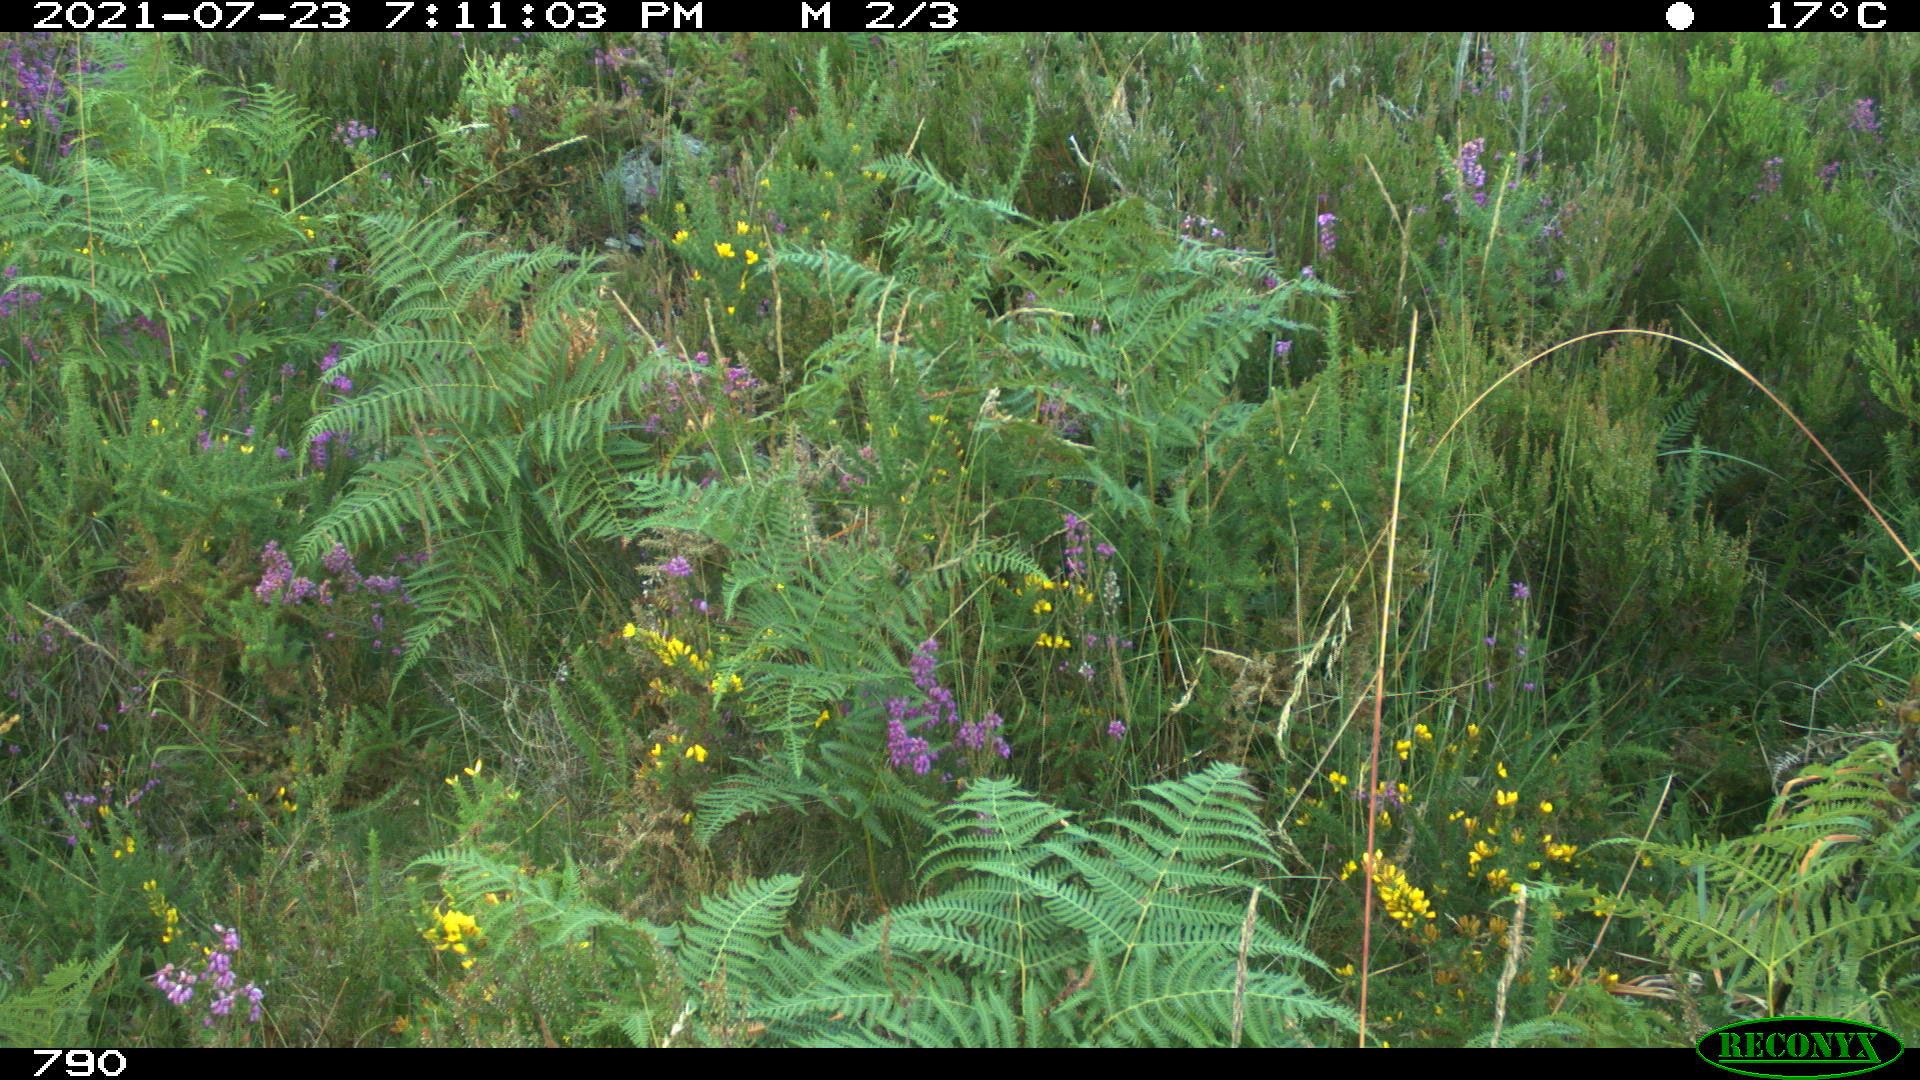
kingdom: Animalia
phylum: Chordata
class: Mammalia
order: Artiodactyla
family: Bovidae
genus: Bos
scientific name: Bos taurus
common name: Domesticated cattle
